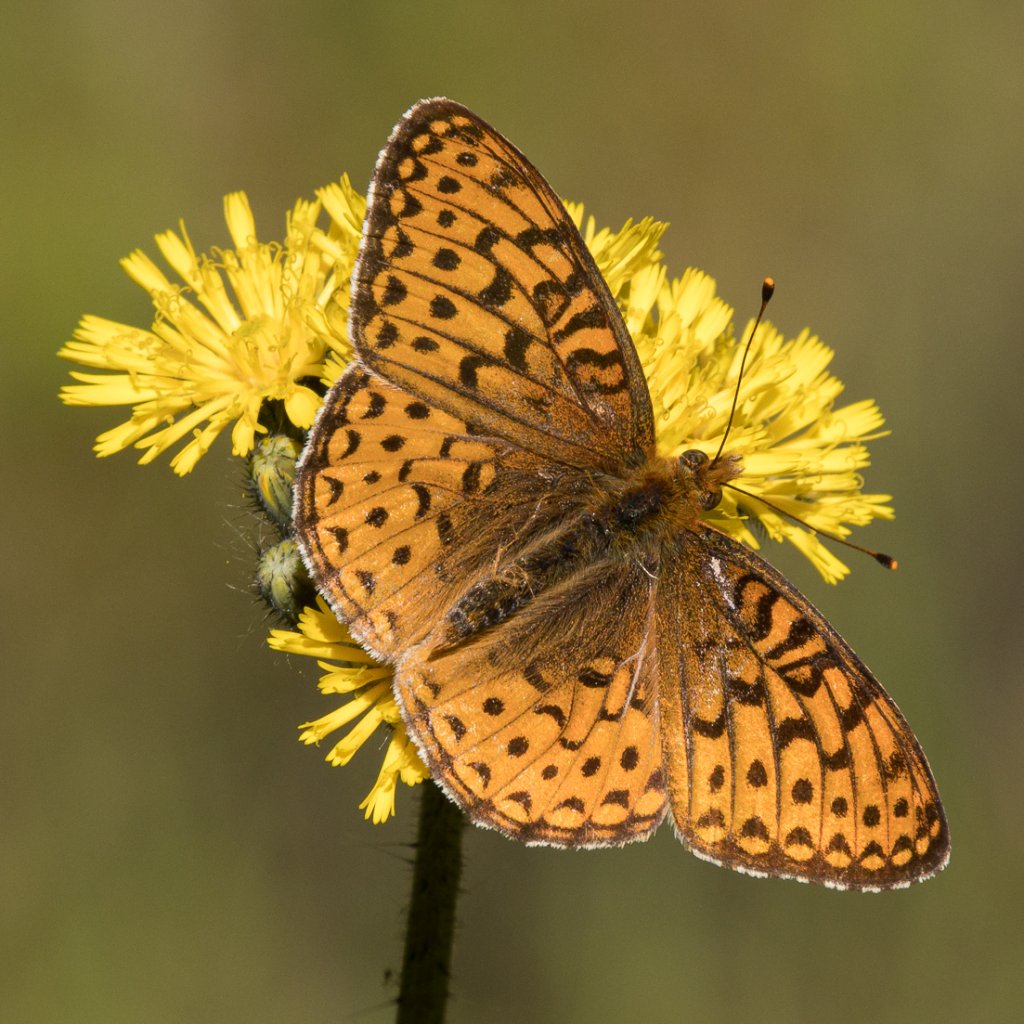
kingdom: Animalia
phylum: Arthropoda
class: Insecta
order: Lepidoptera
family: Nymphalidae
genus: Speyeria
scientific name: Speyeria atlantis
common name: Northwestern Fritillary
